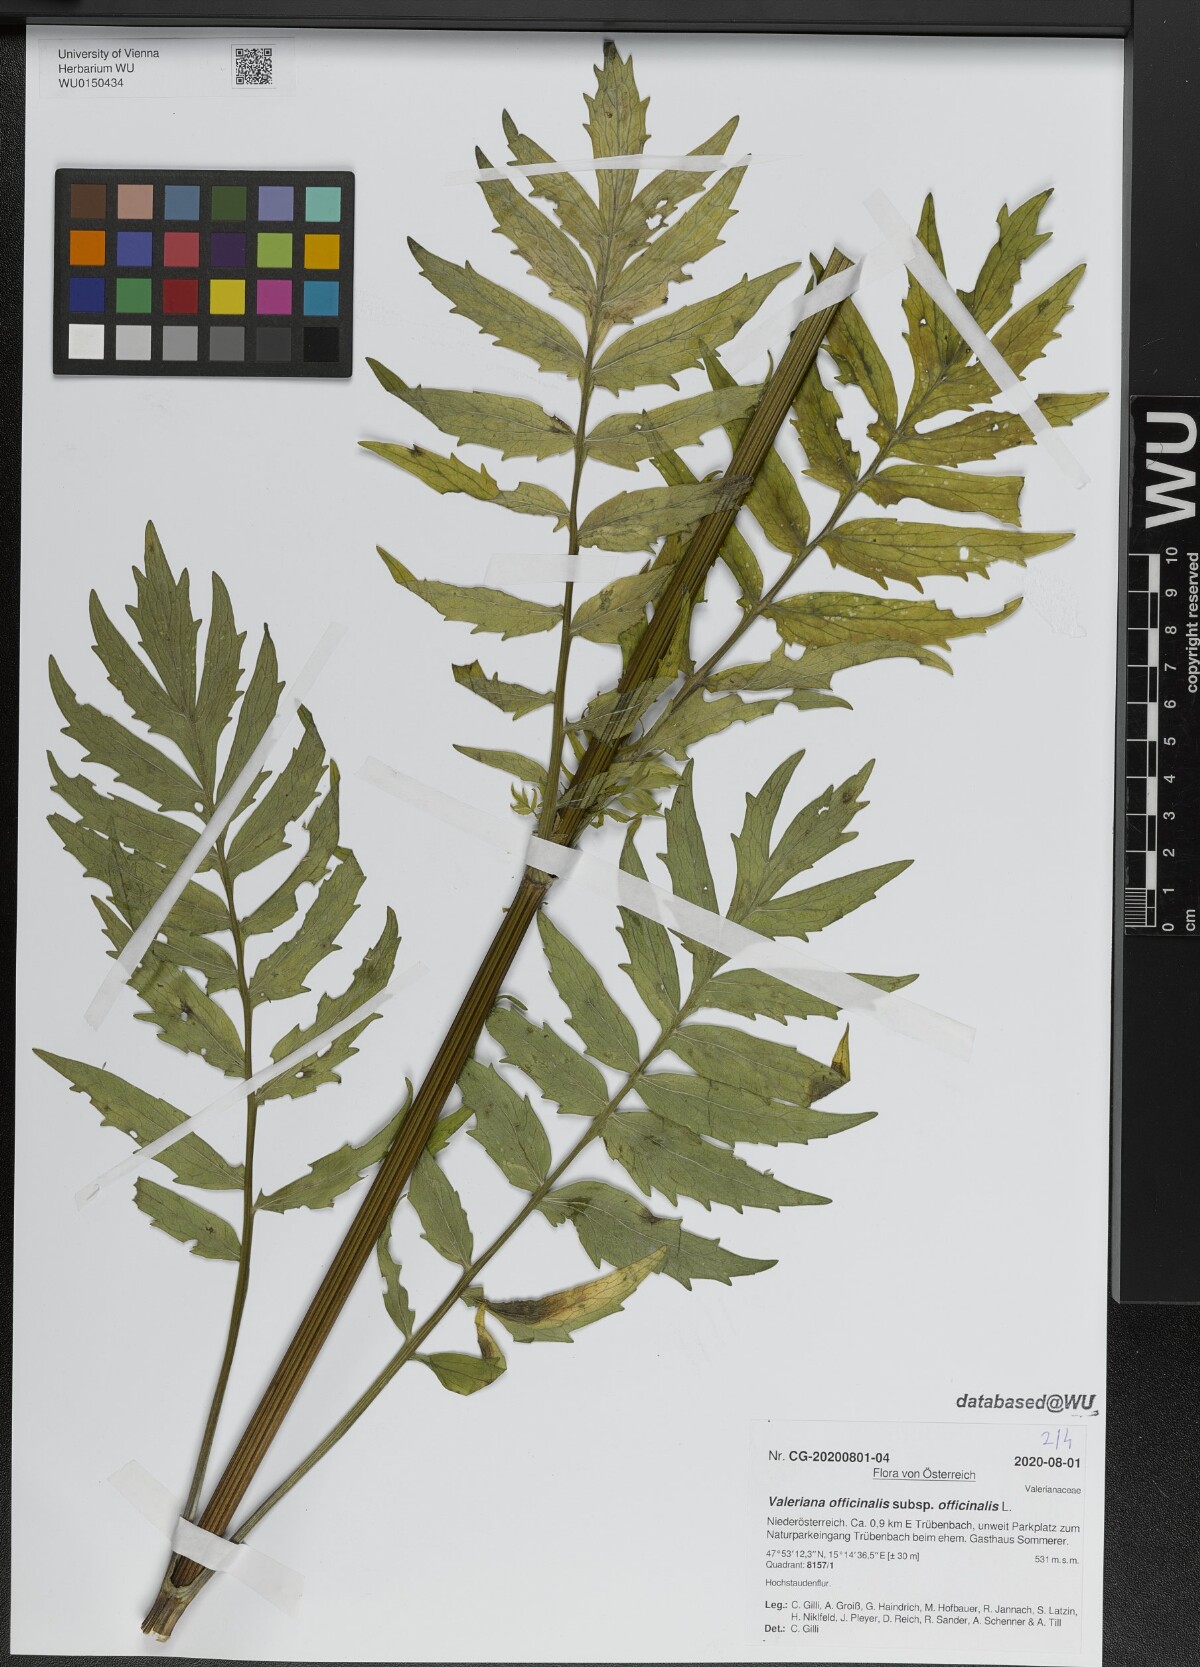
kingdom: Plantae
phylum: Tracheophyta
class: Magnoliopsida
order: Dipsacales
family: Caprifoliaceae
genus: Valeriana
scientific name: Valeriana officinalis
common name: Common valerian
